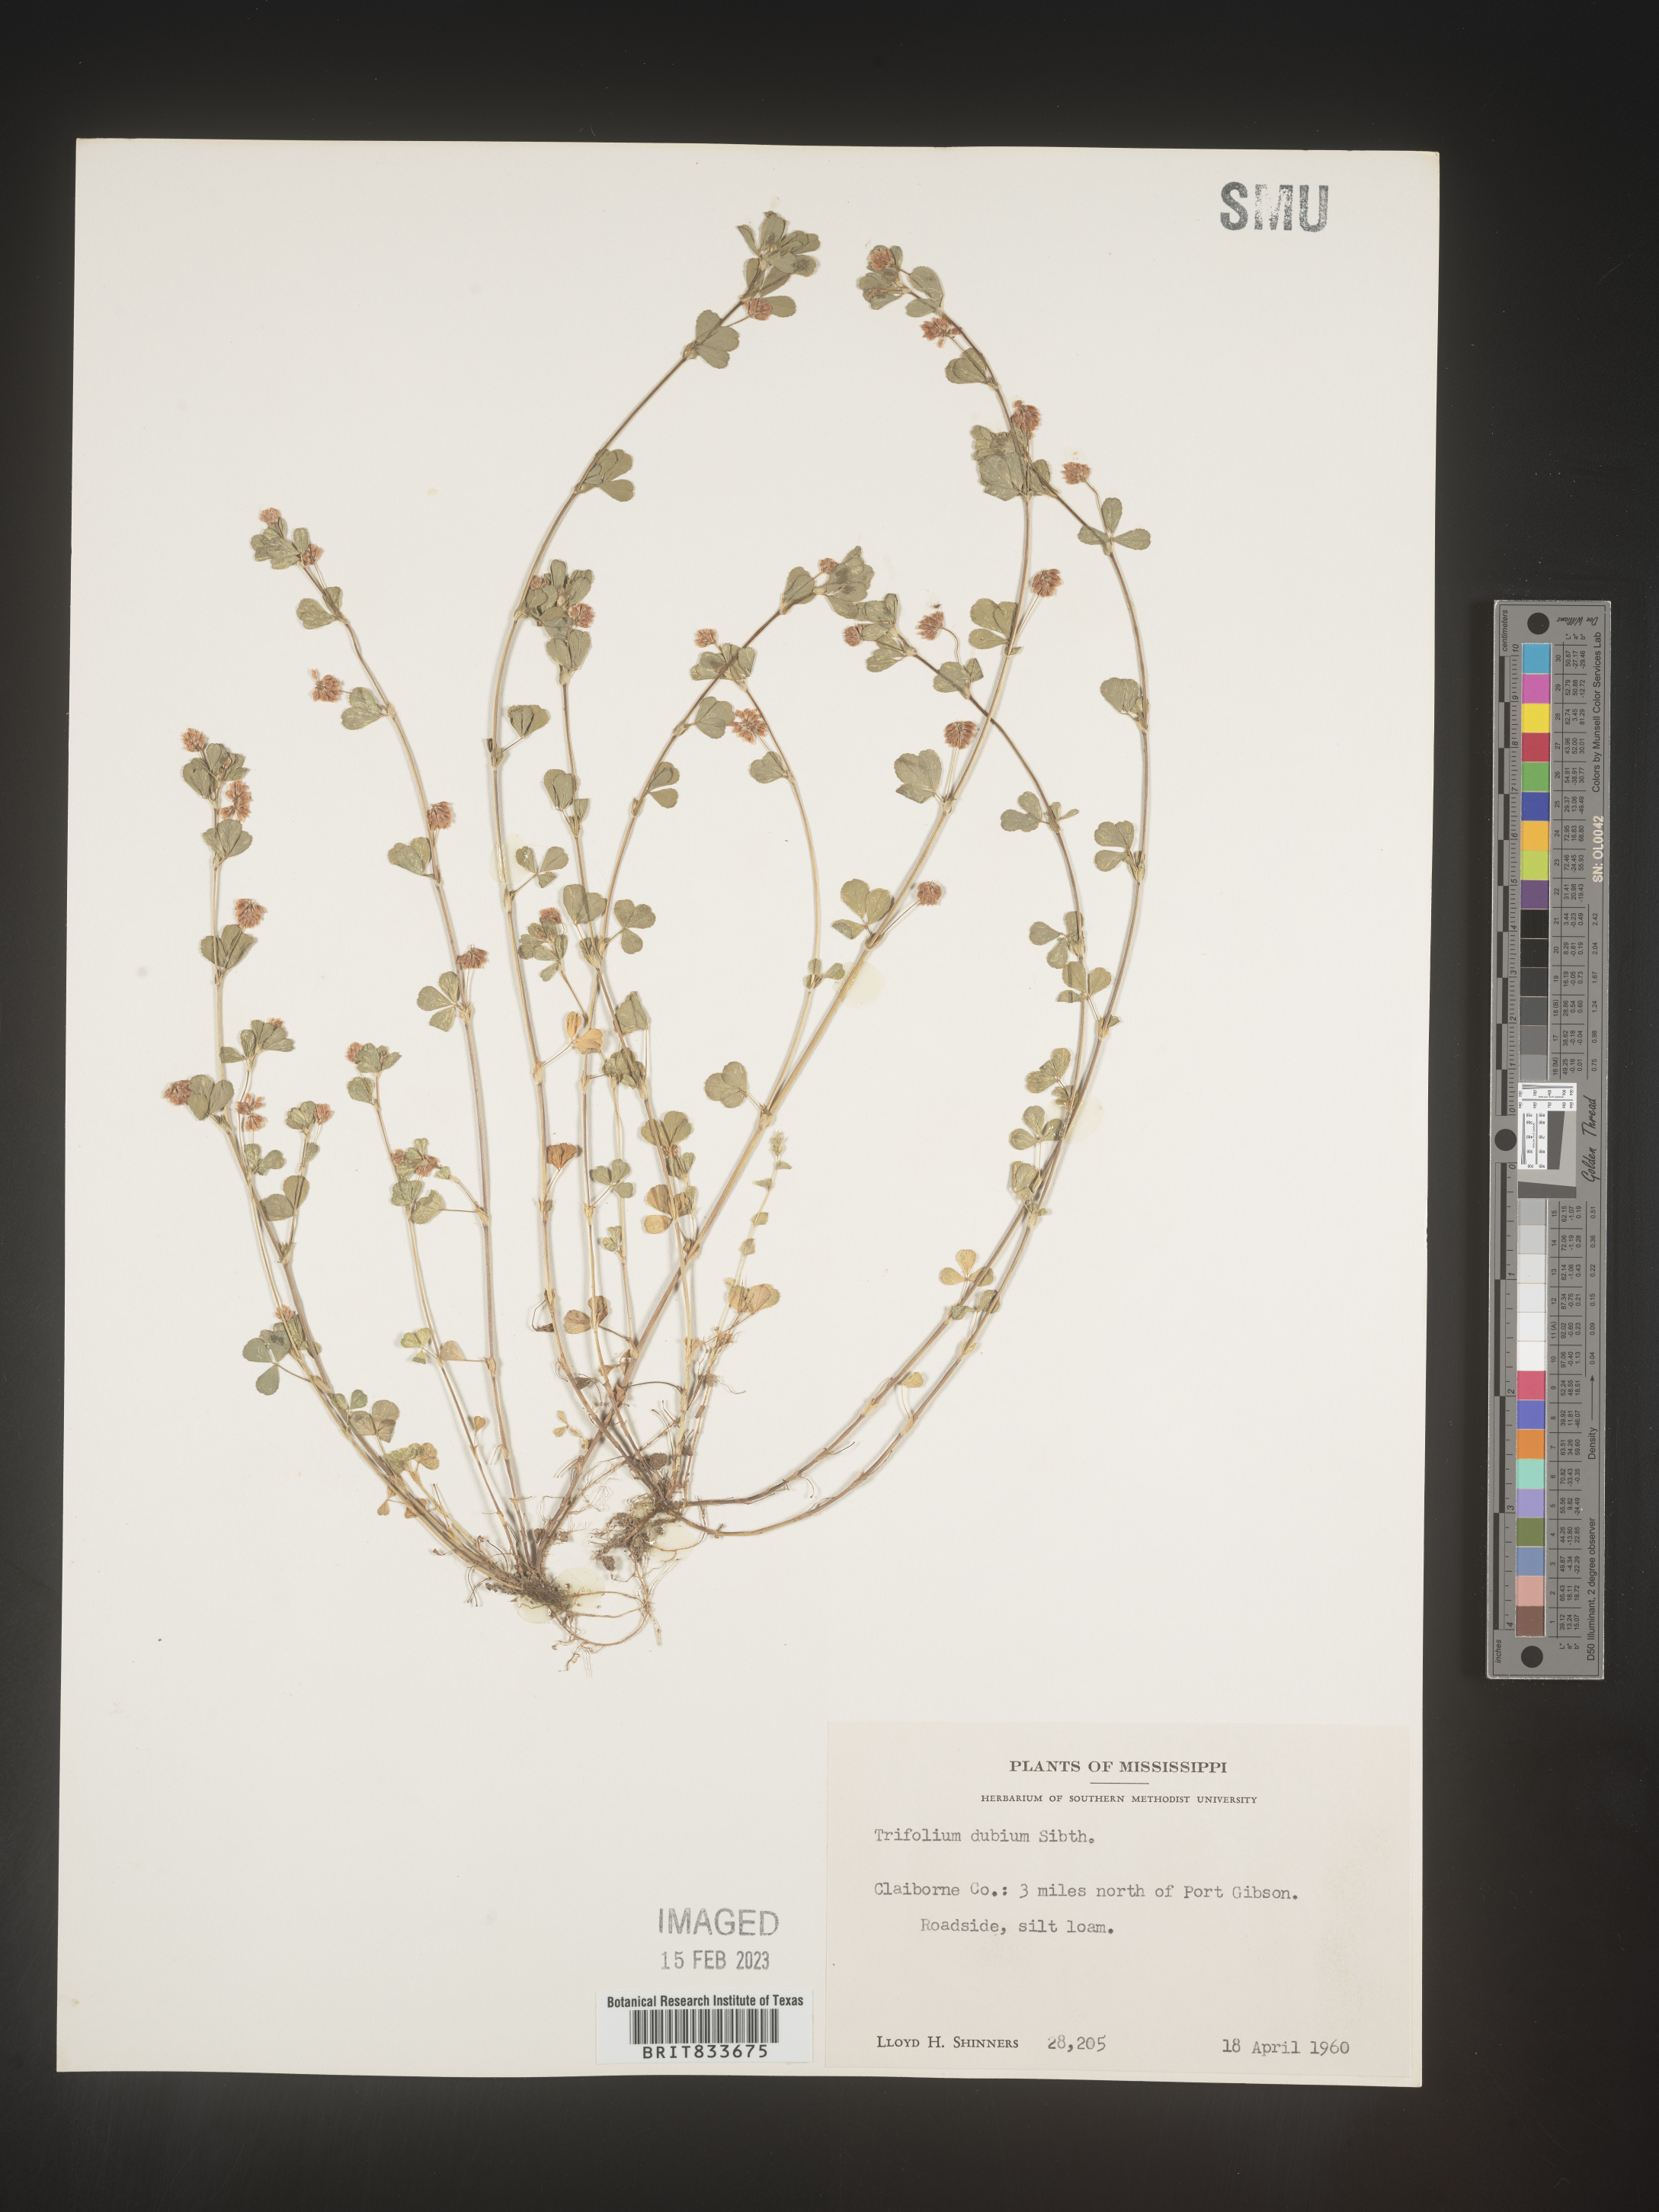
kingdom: Plantae
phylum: Tracheophyta
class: Magnoliopsida
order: Fabales
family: Fabaceae
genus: Trifolium
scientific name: Trifolium dubium
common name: Suckling clover
